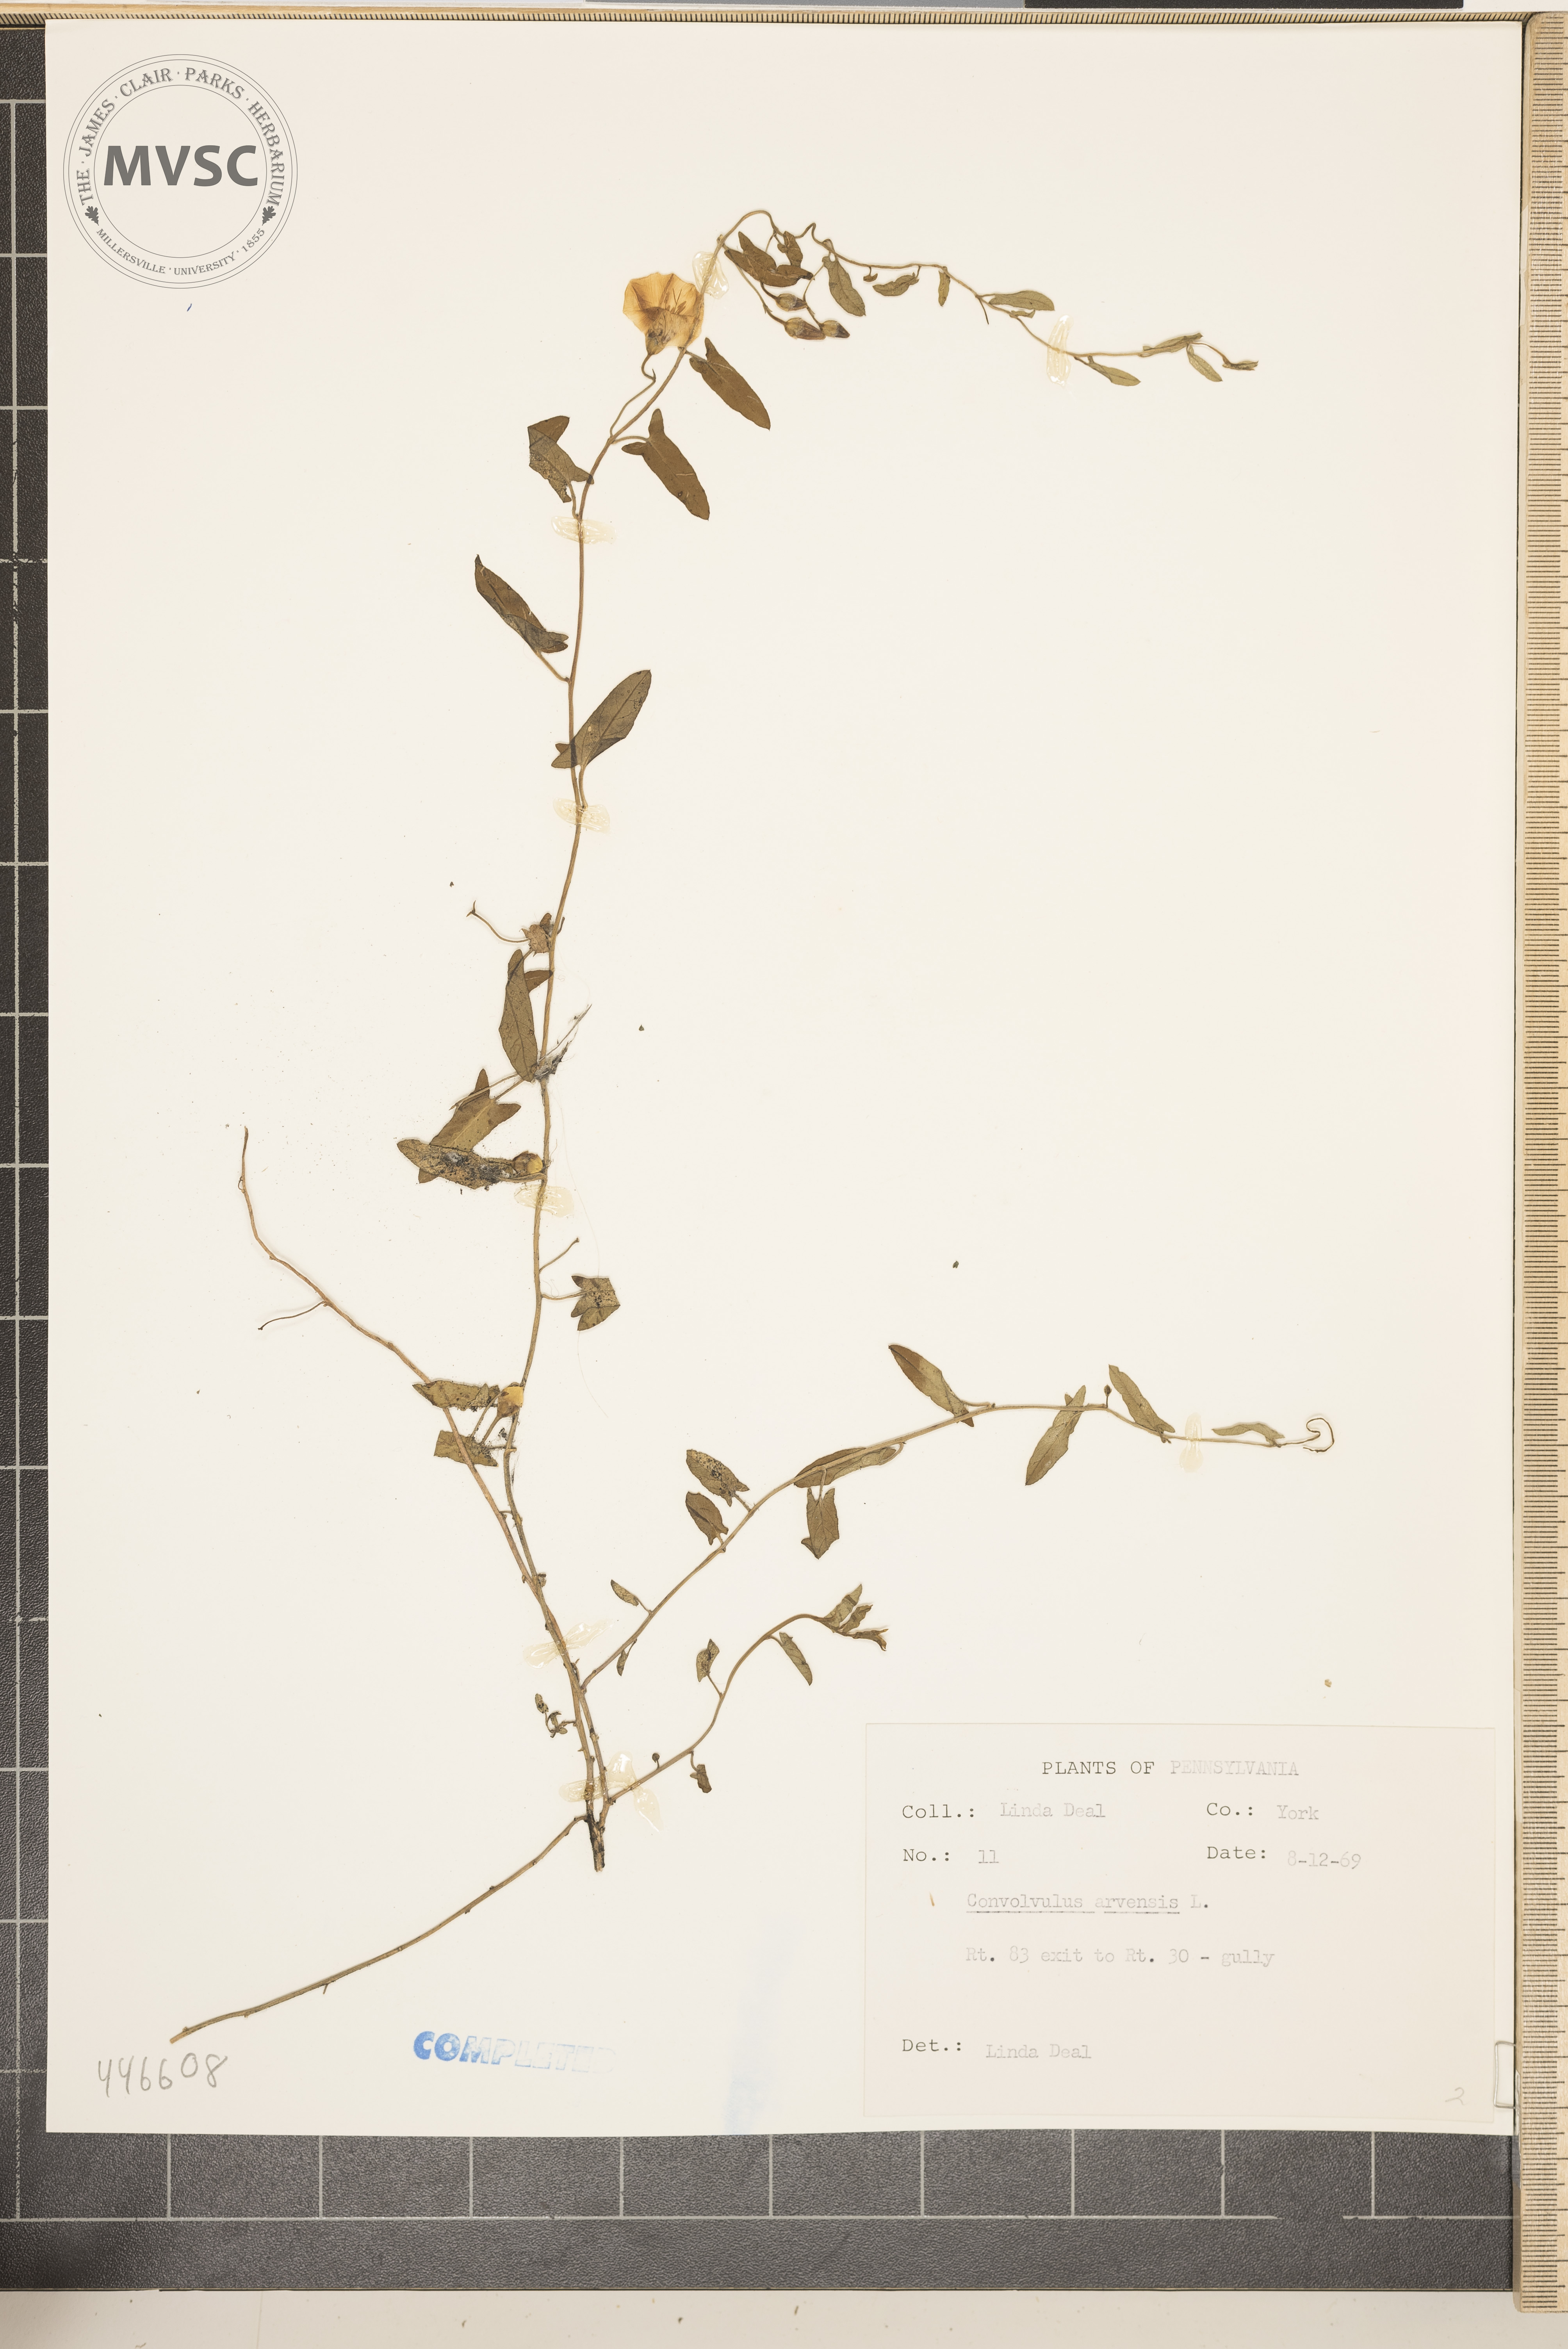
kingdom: Plantae
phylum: Tracheophyta
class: Magnoliopsida
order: Solanales
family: Convolvulaceae
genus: Convolvulus
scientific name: Convolvulus arvensis
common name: Field bindweed
